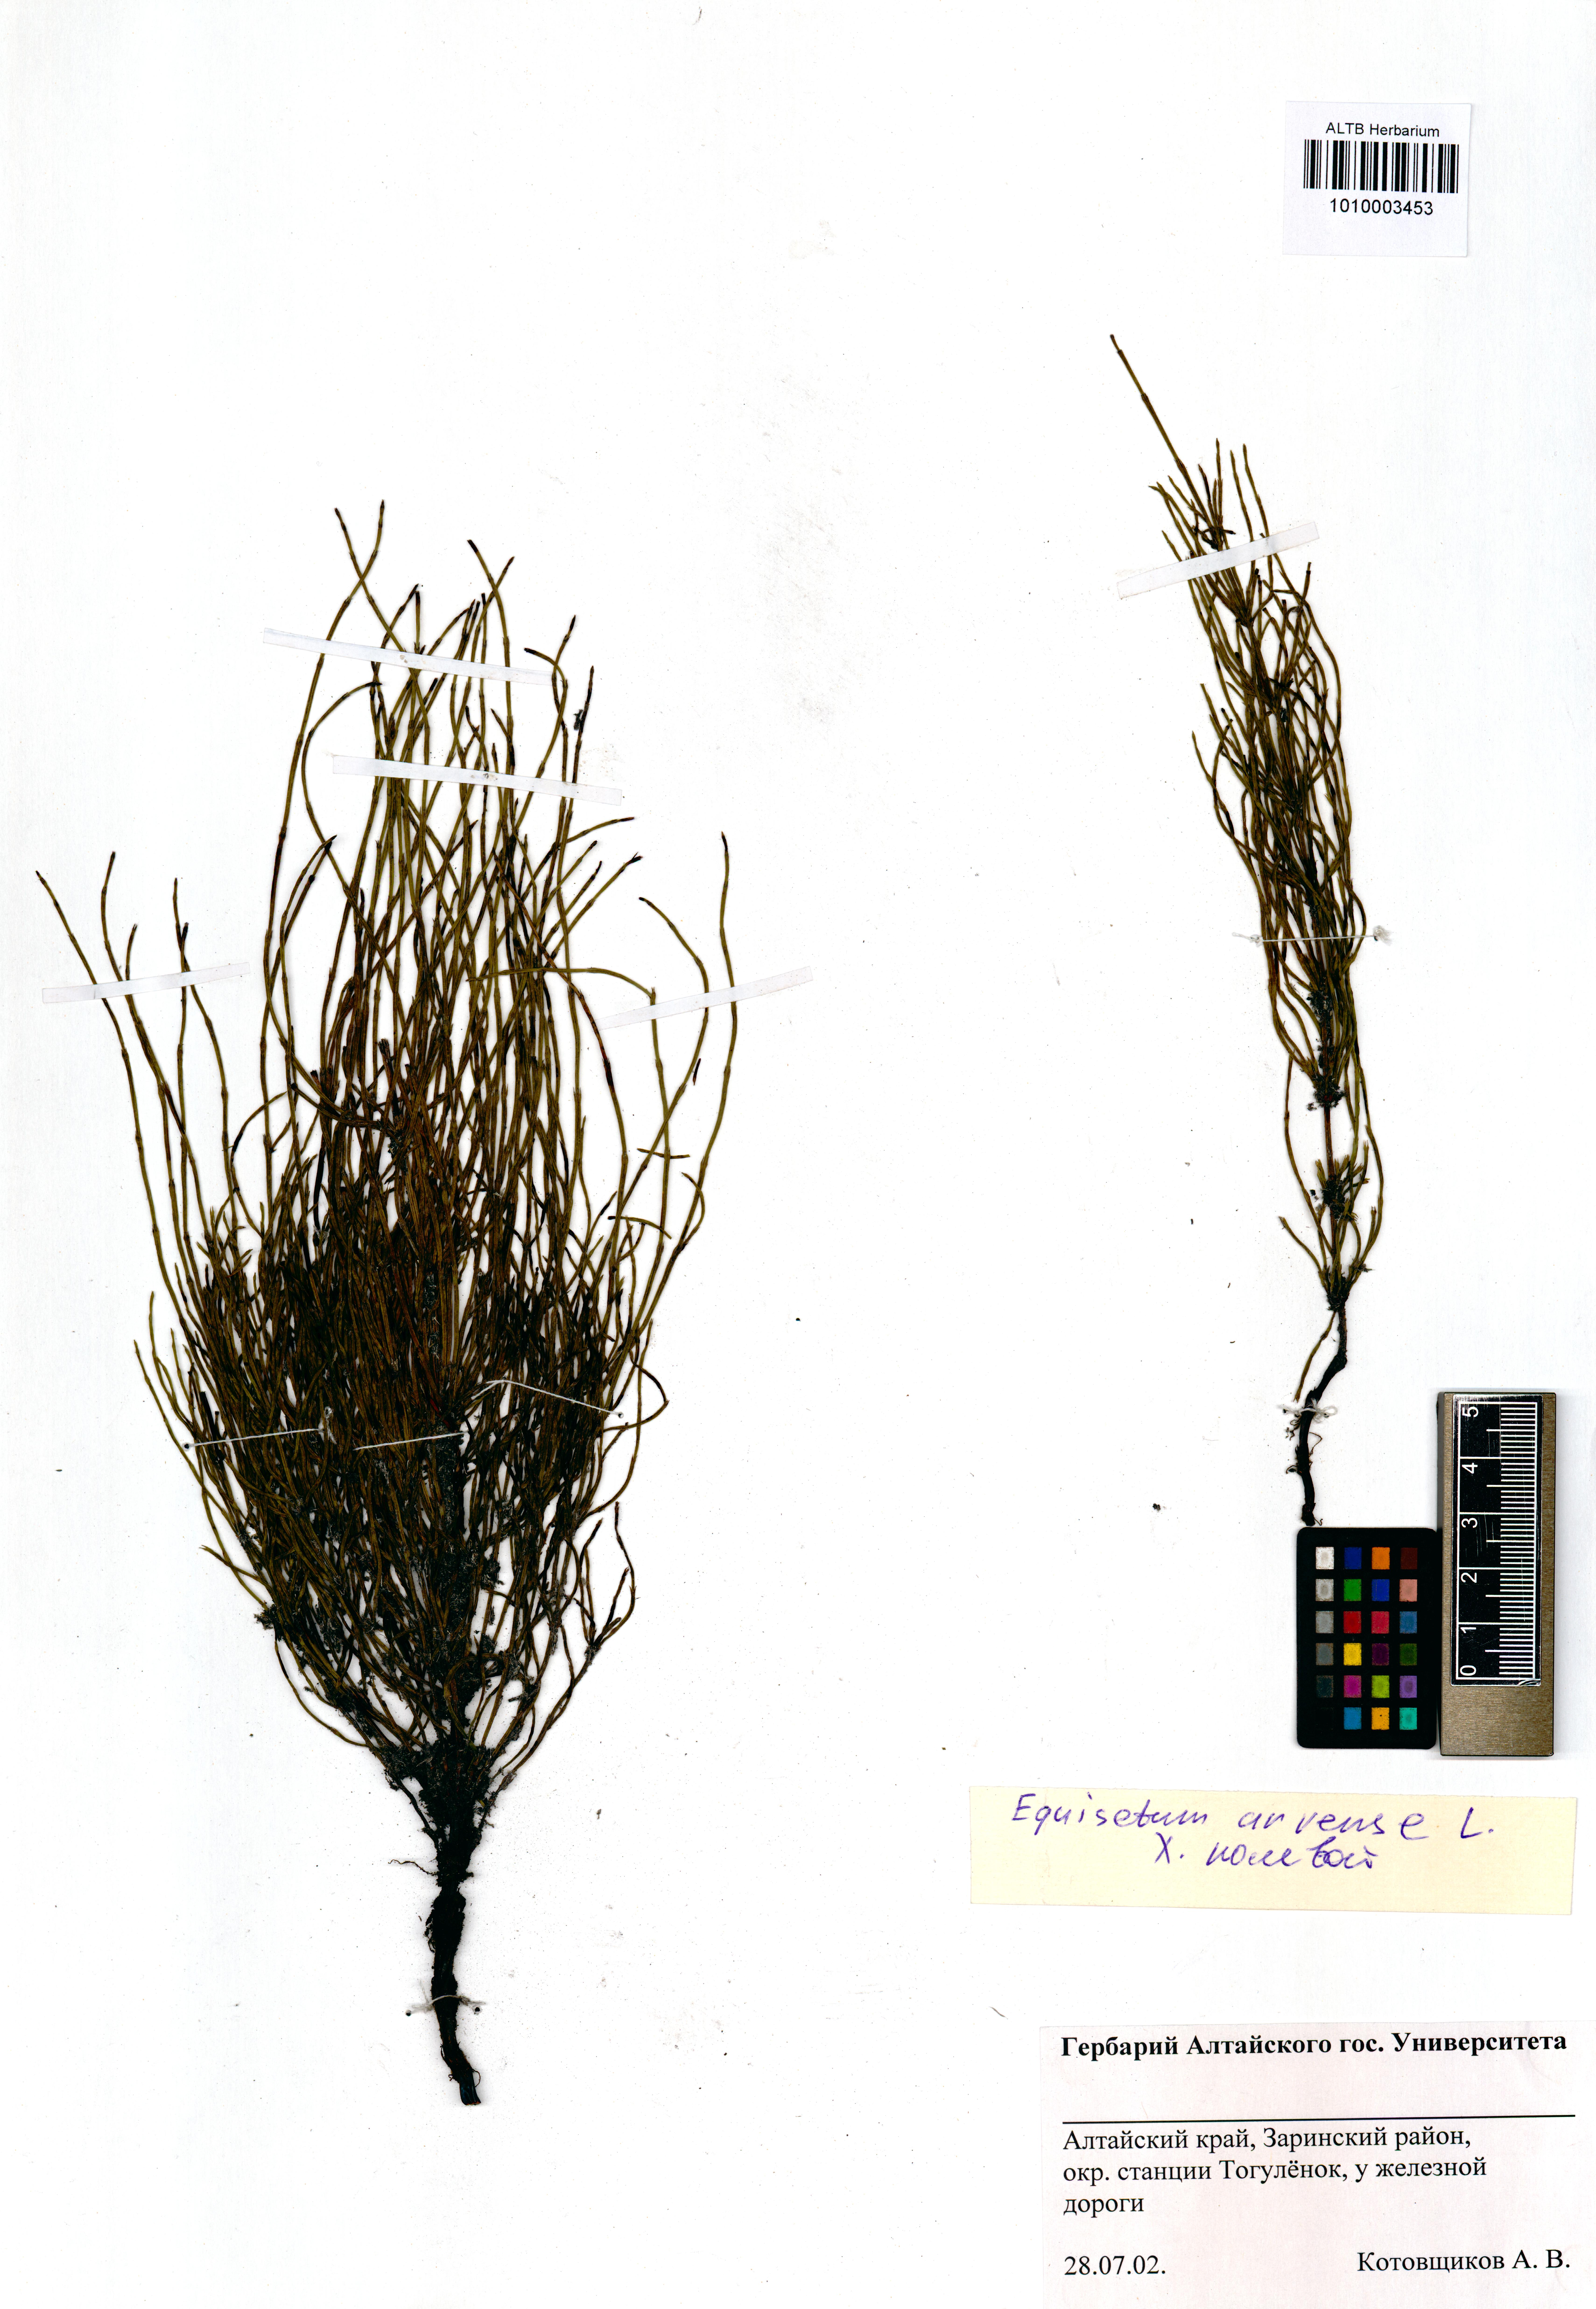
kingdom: Plantae
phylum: Tracheophyta
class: Polypodiopsida
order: Equisetales
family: Equisetaceae
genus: Equisetum
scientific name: Equisetum arvense
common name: Field horsetail
